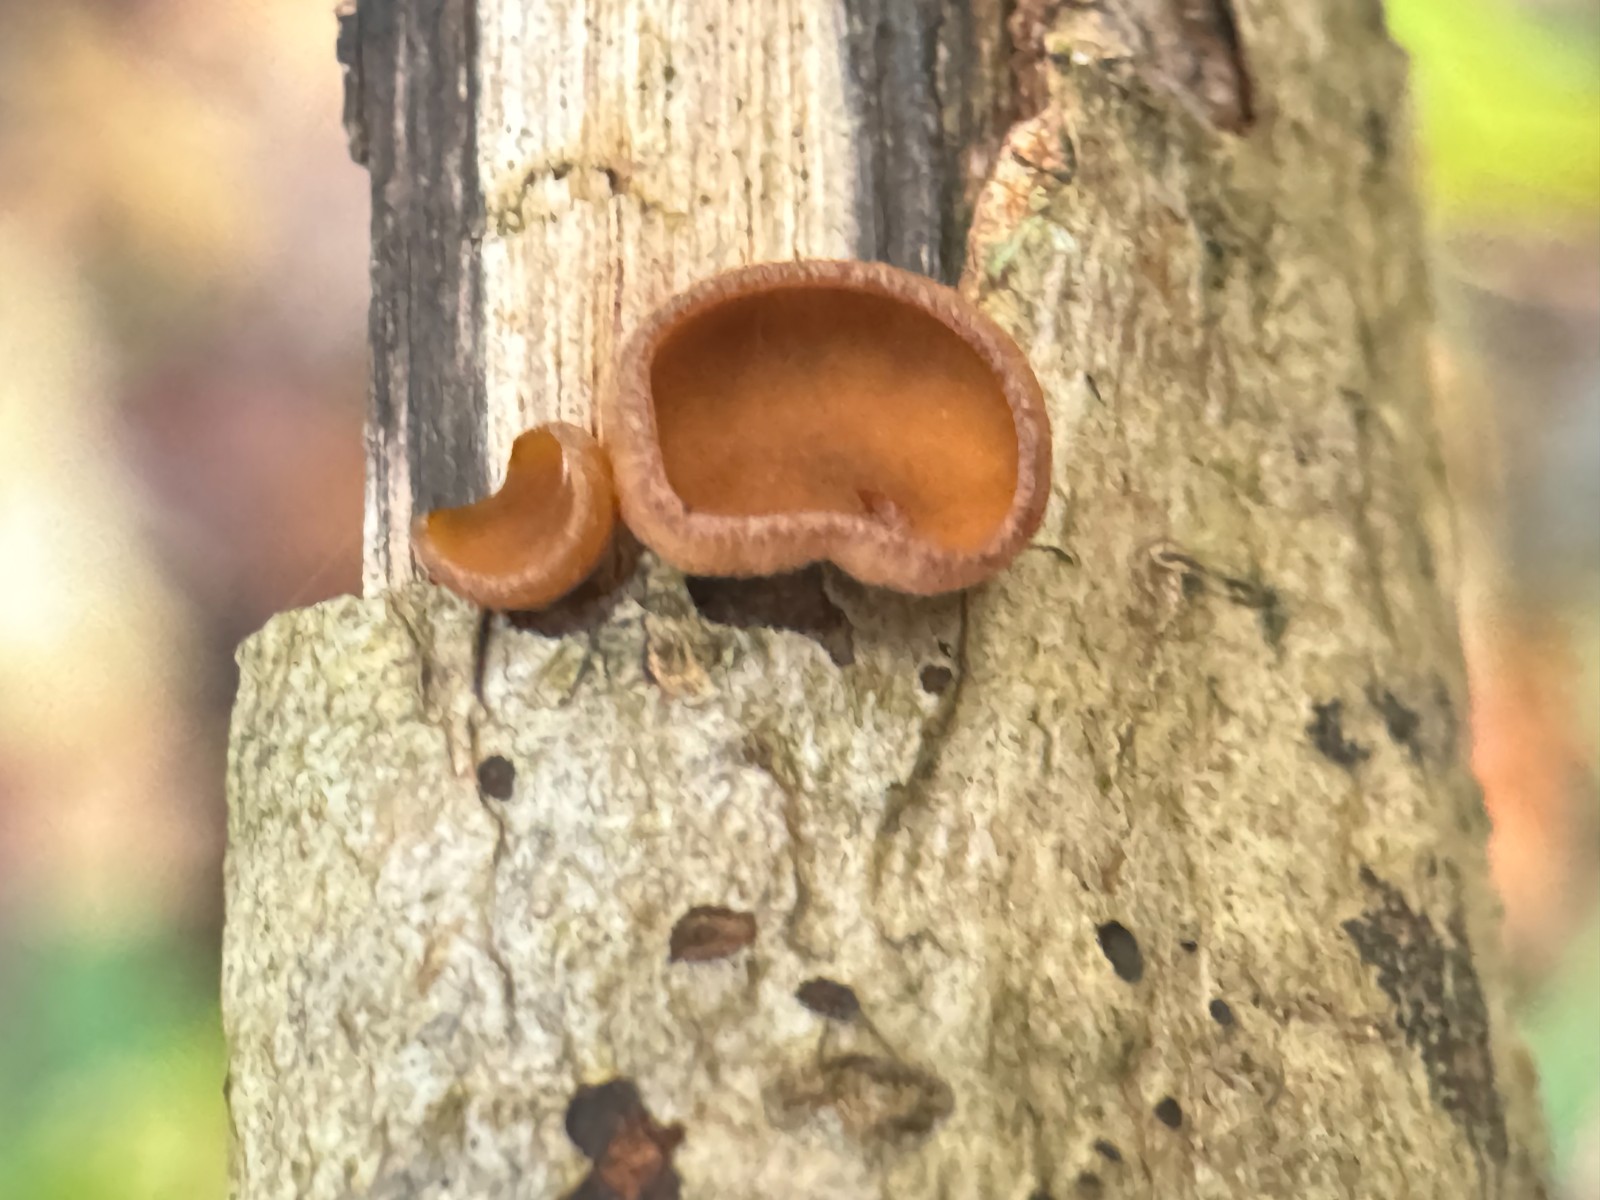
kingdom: Fungi
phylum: Ascomycota
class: Leotiomycetes
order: Helotiales
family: Rutstroemiaceae
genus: Rutstroemia
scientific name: Rutstroemia firma
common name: gren-brunskive
